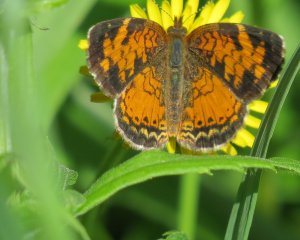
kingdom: Animalia
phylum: Arthropoda
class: Insecta
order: Lepidoptera
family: Nymphalidae
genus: Phyciodes
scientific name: Phyciodes tharos
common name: Pearl Crescent
